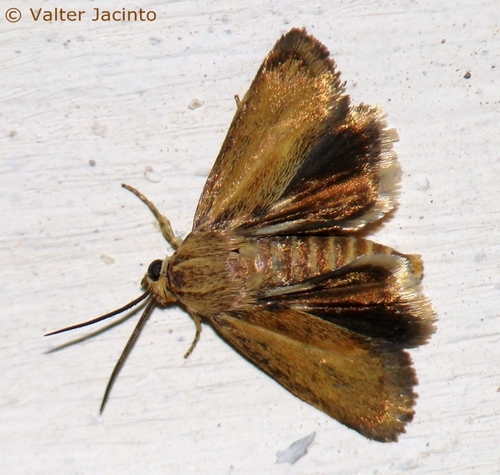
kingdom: Animalia
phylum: Arthropoda
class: Insecta
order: Lepidoptera
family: Brachodidae
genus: Atychia
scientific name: Atychia nanetta
